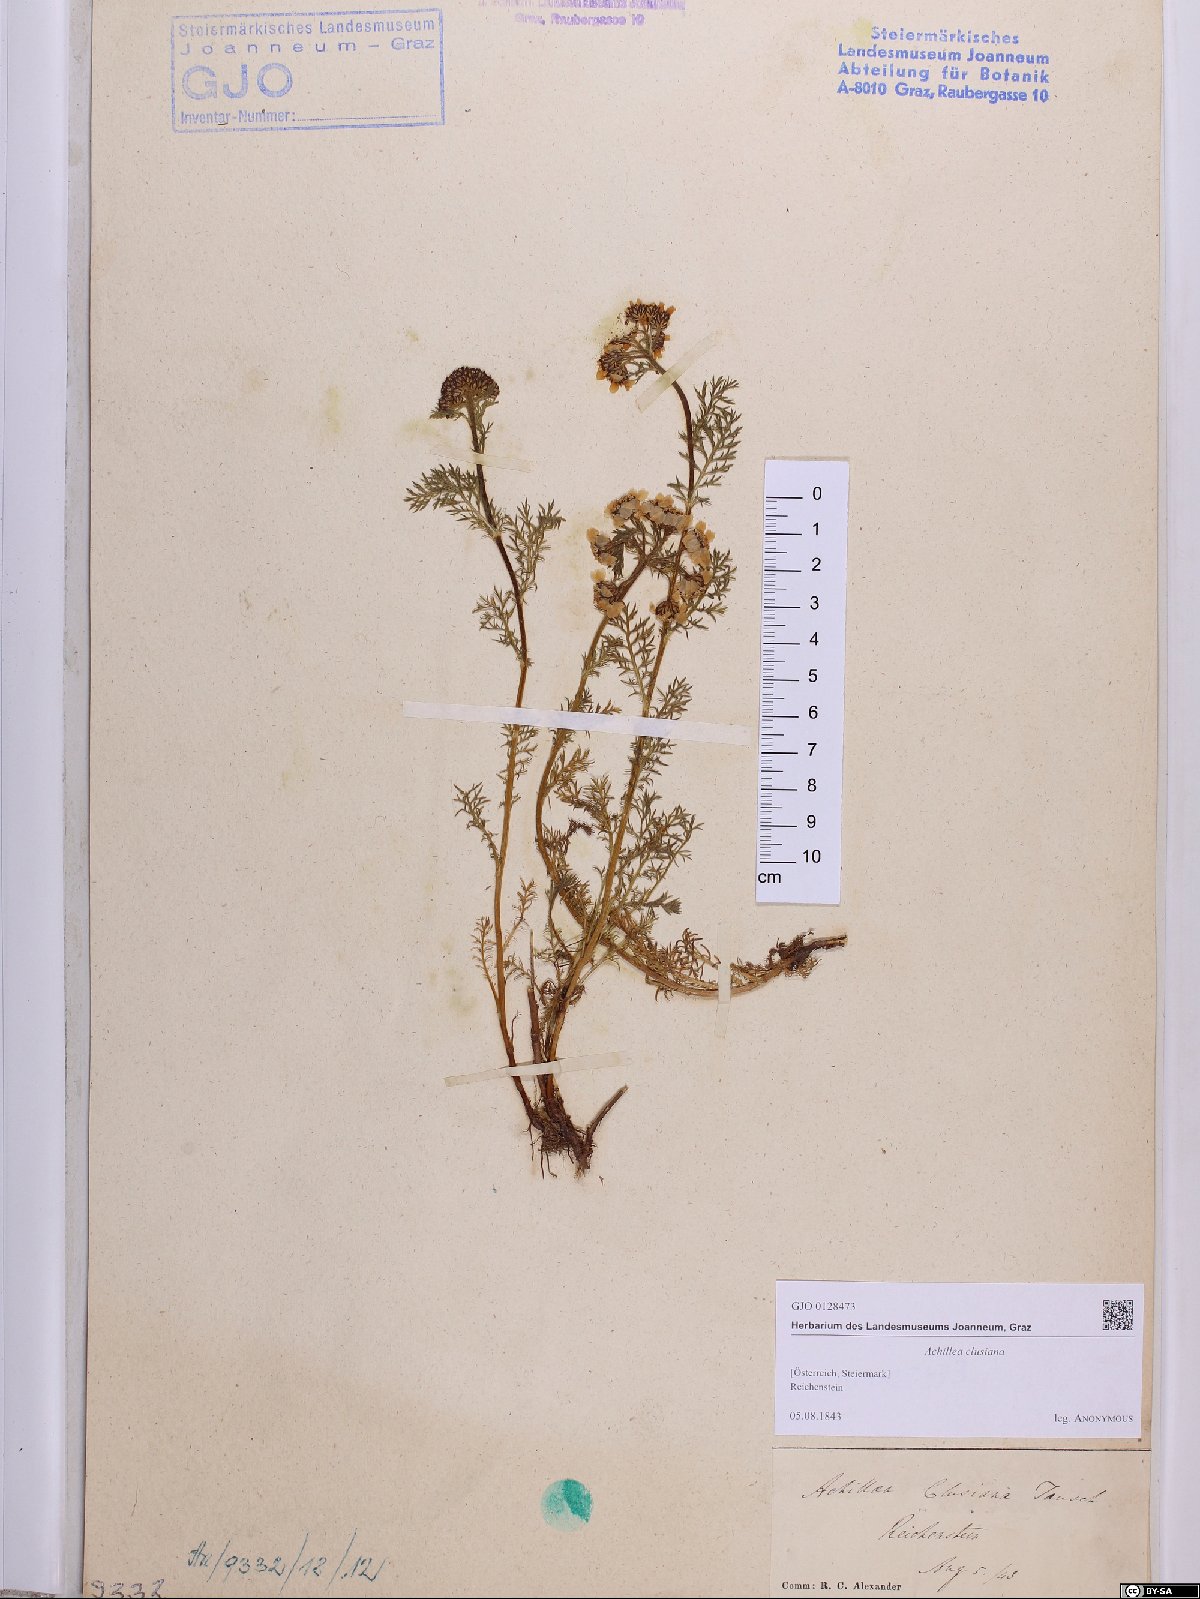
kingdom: Plantae
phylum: Tracheophyta
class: Magnoliopsida
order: Asterales
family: Asteraceae
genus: Achillea
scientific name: Achillea clusiana
